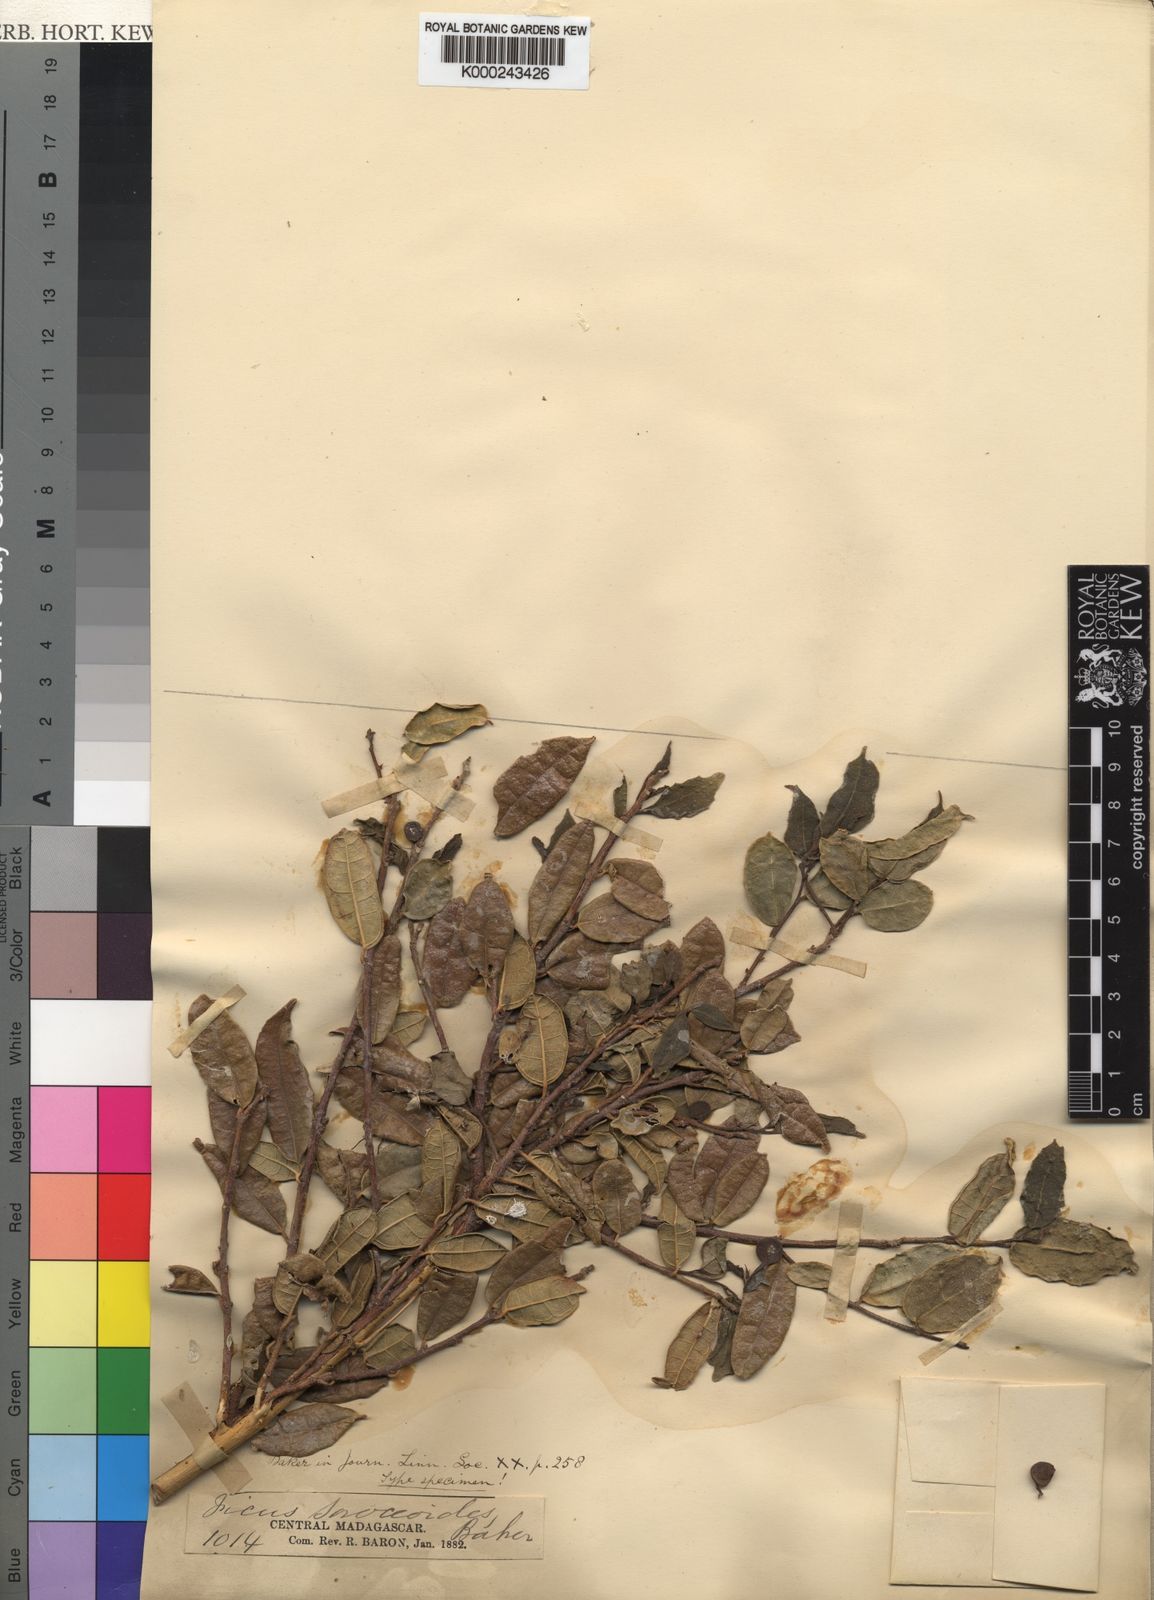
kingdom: Plantae
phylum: Tracheophyta
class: Magnoliopsida
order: Rosales
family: Moraceae
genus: Ficus
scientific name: Ficus exasperata
